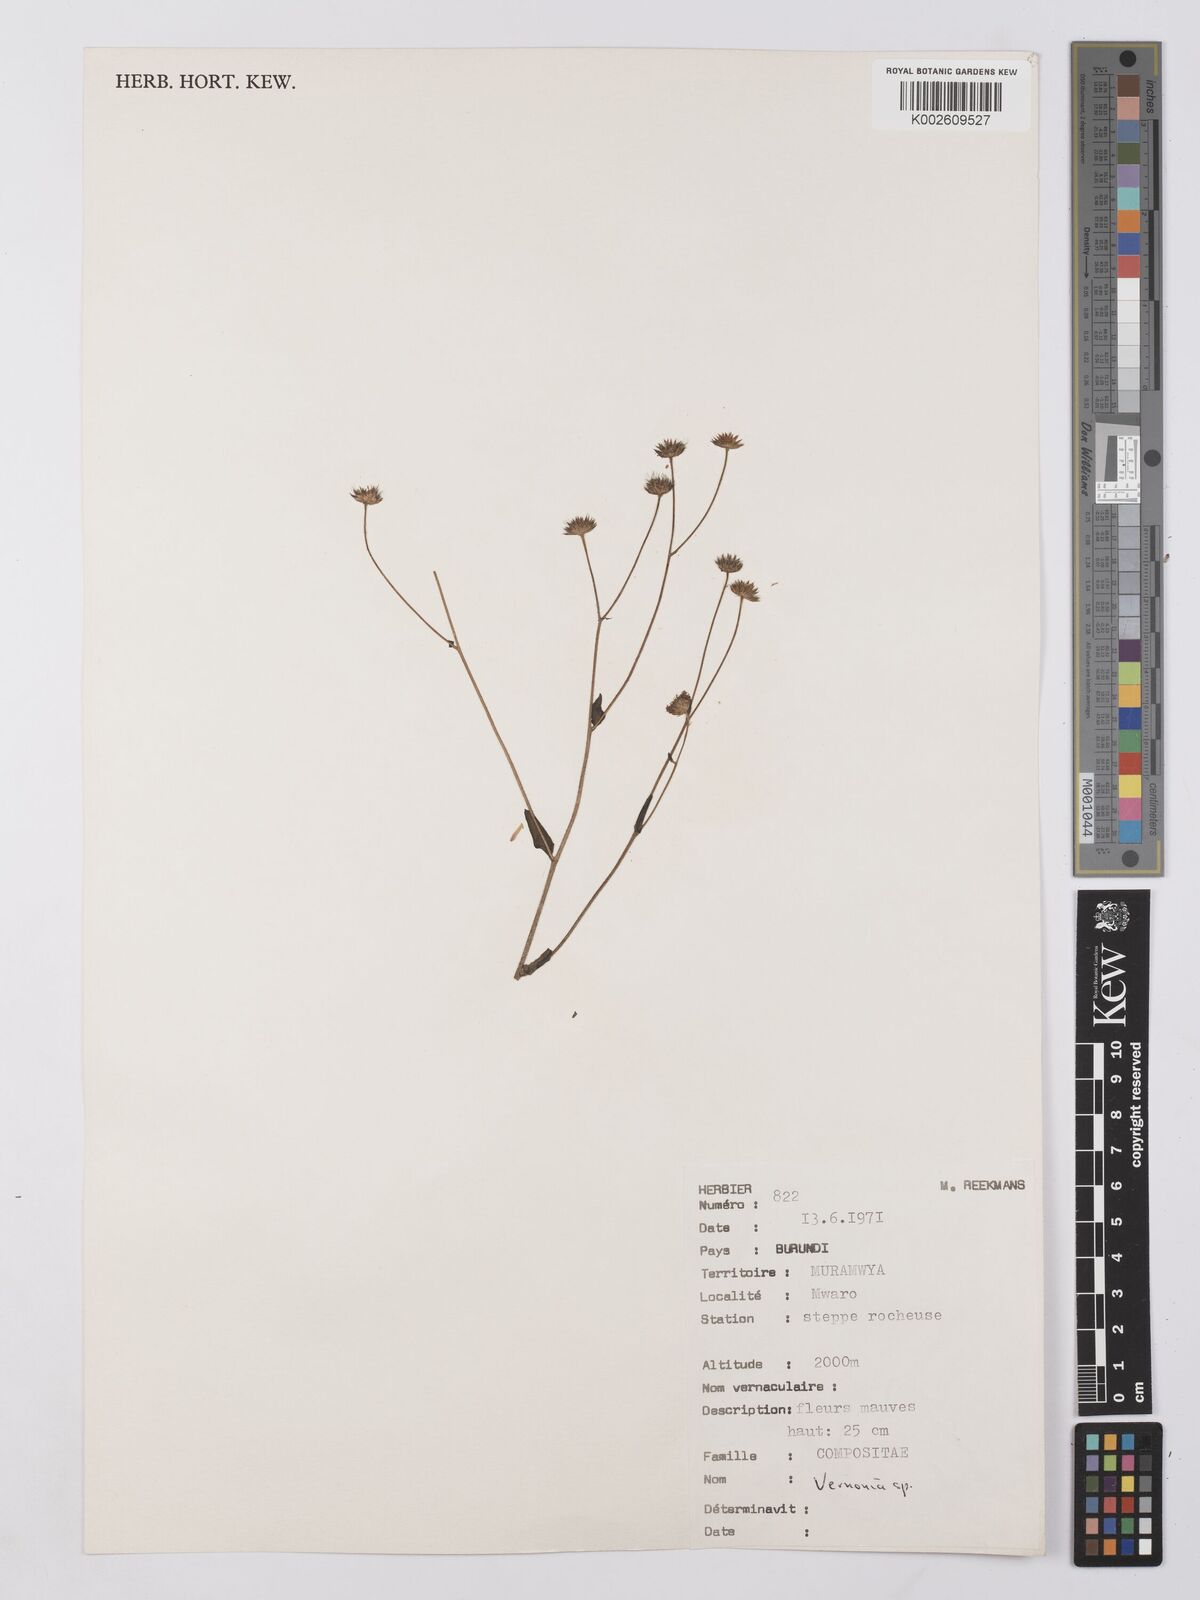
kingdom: Plantae
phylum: Tracheophyta
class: Magnoliopsida
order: Asterales
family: Asteraceae
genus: Vernonia
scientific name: Vernonia
